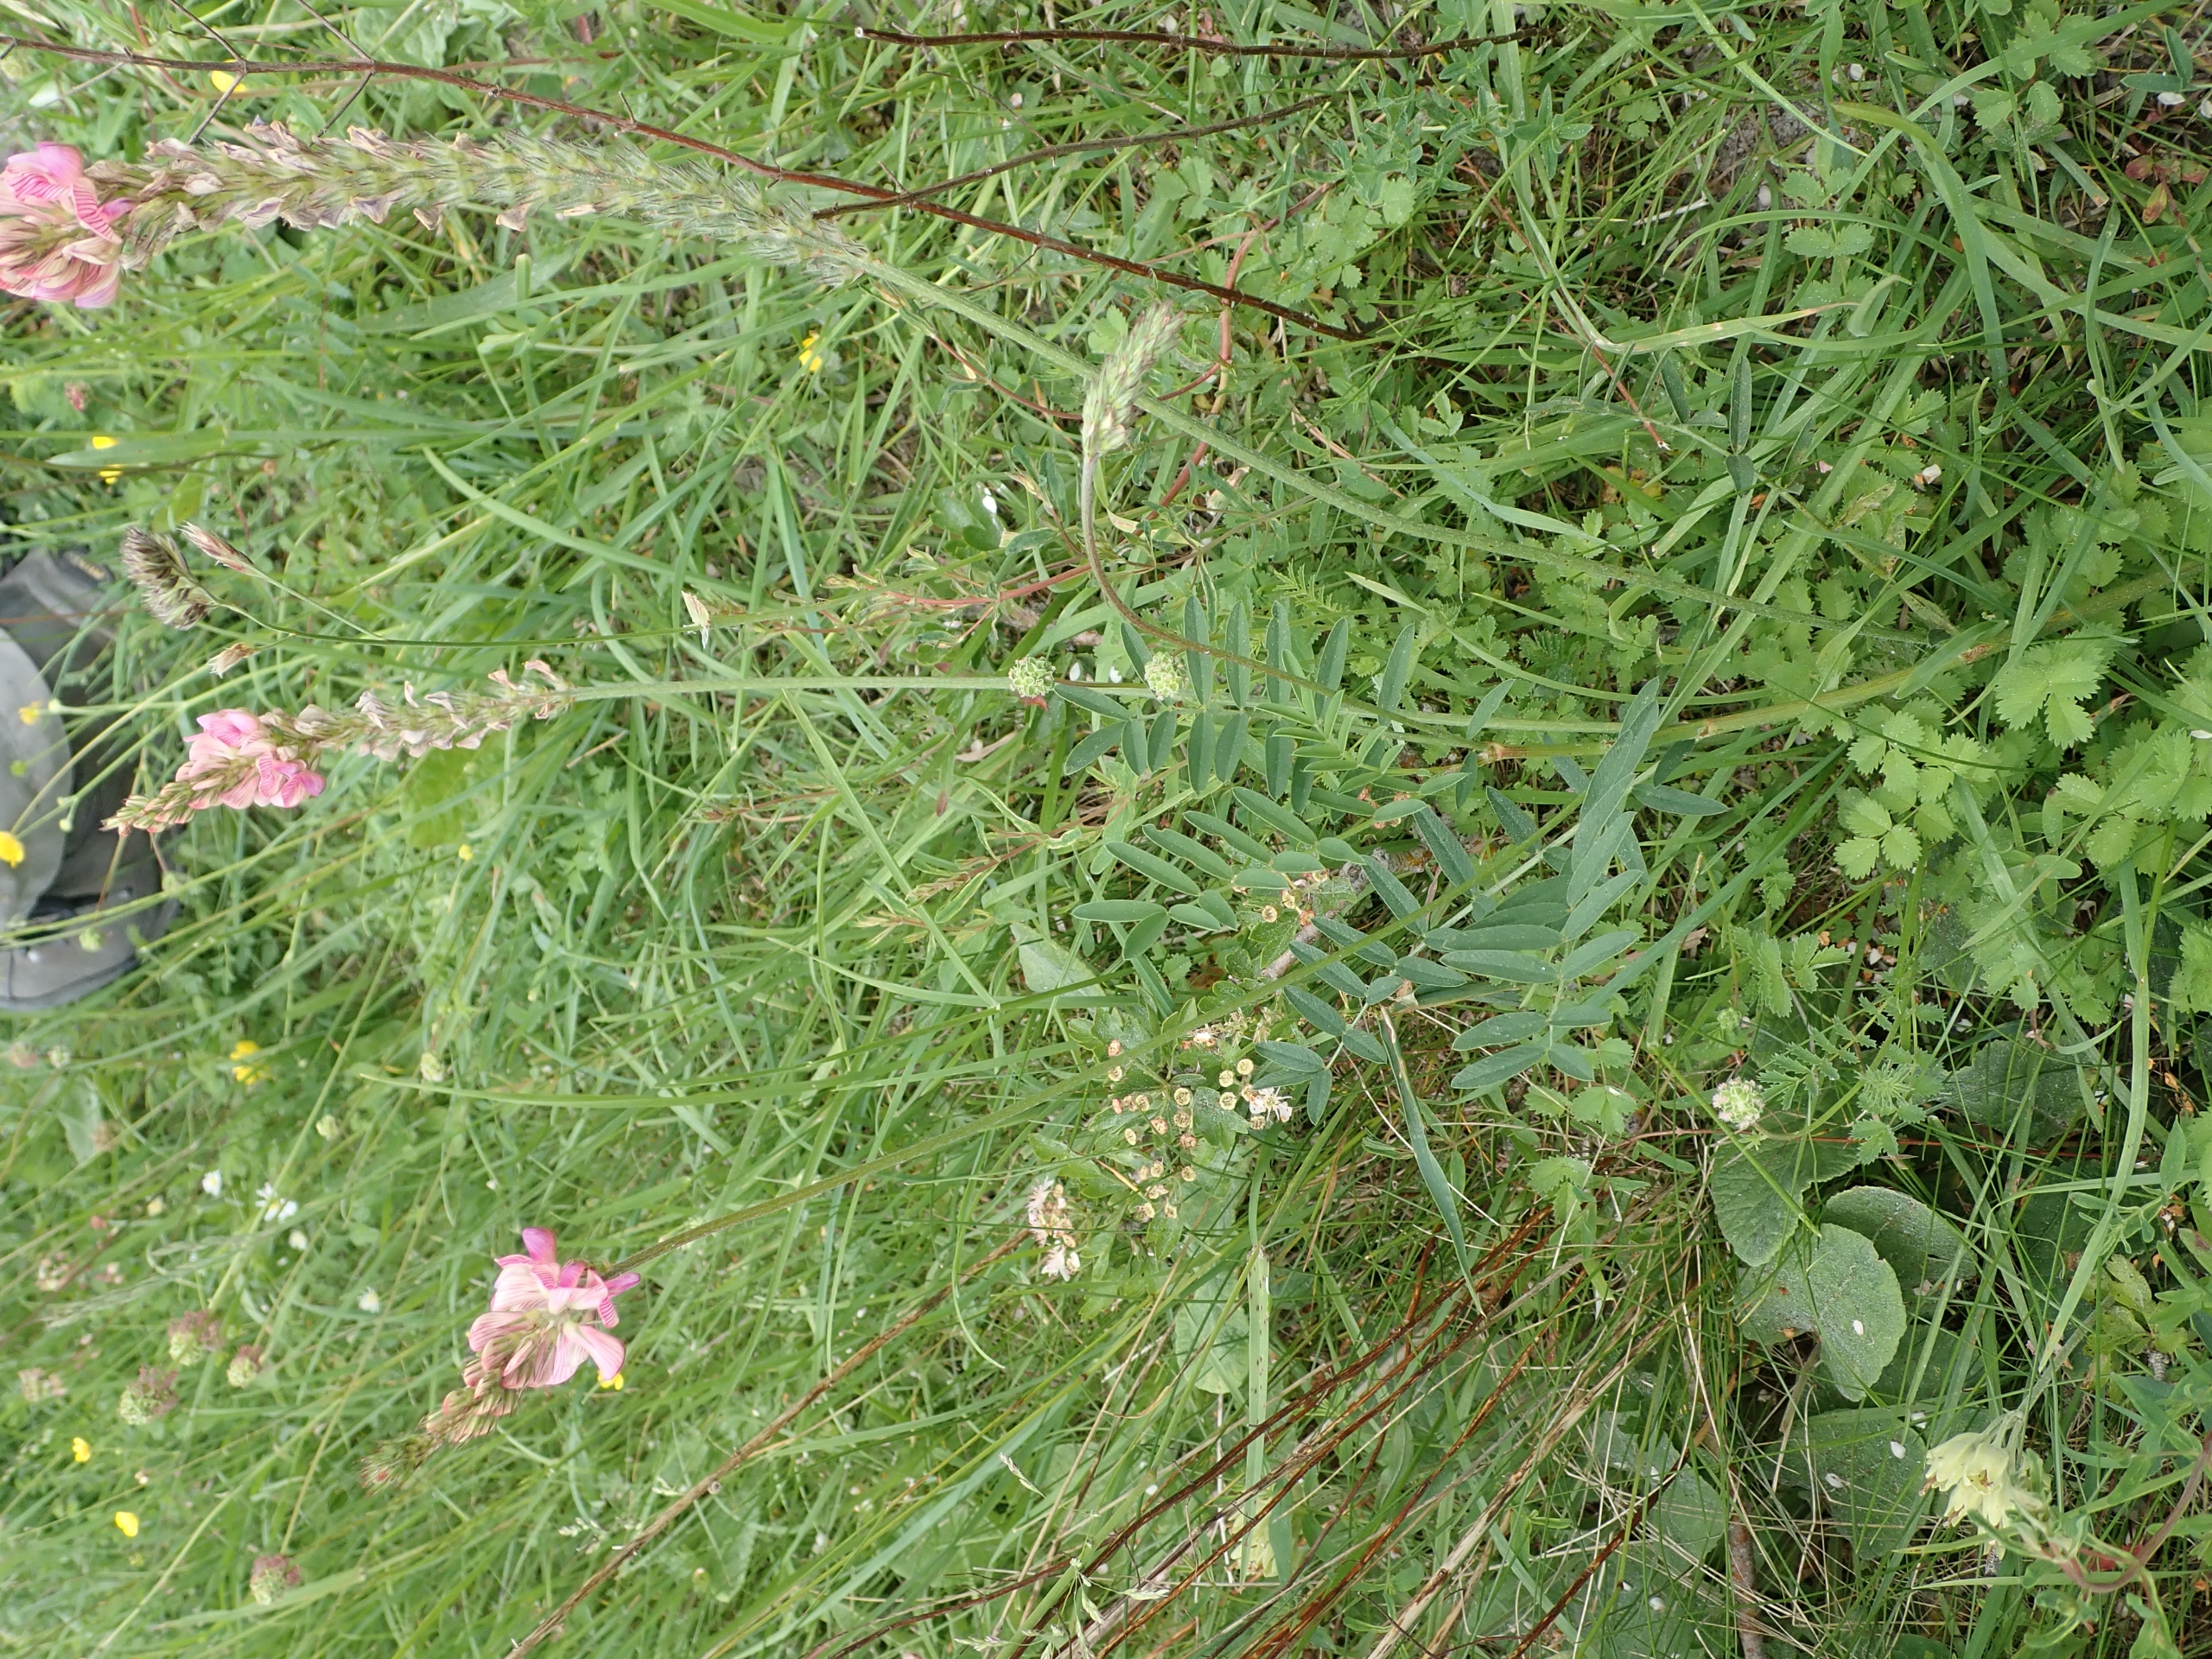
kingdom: Plantae
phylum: Tracheophyta
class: Magnoliopsida
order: Fabales
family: Fabaceae
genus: Onobrychis
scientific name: Onobrychis viciifolia
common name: Esparsette
